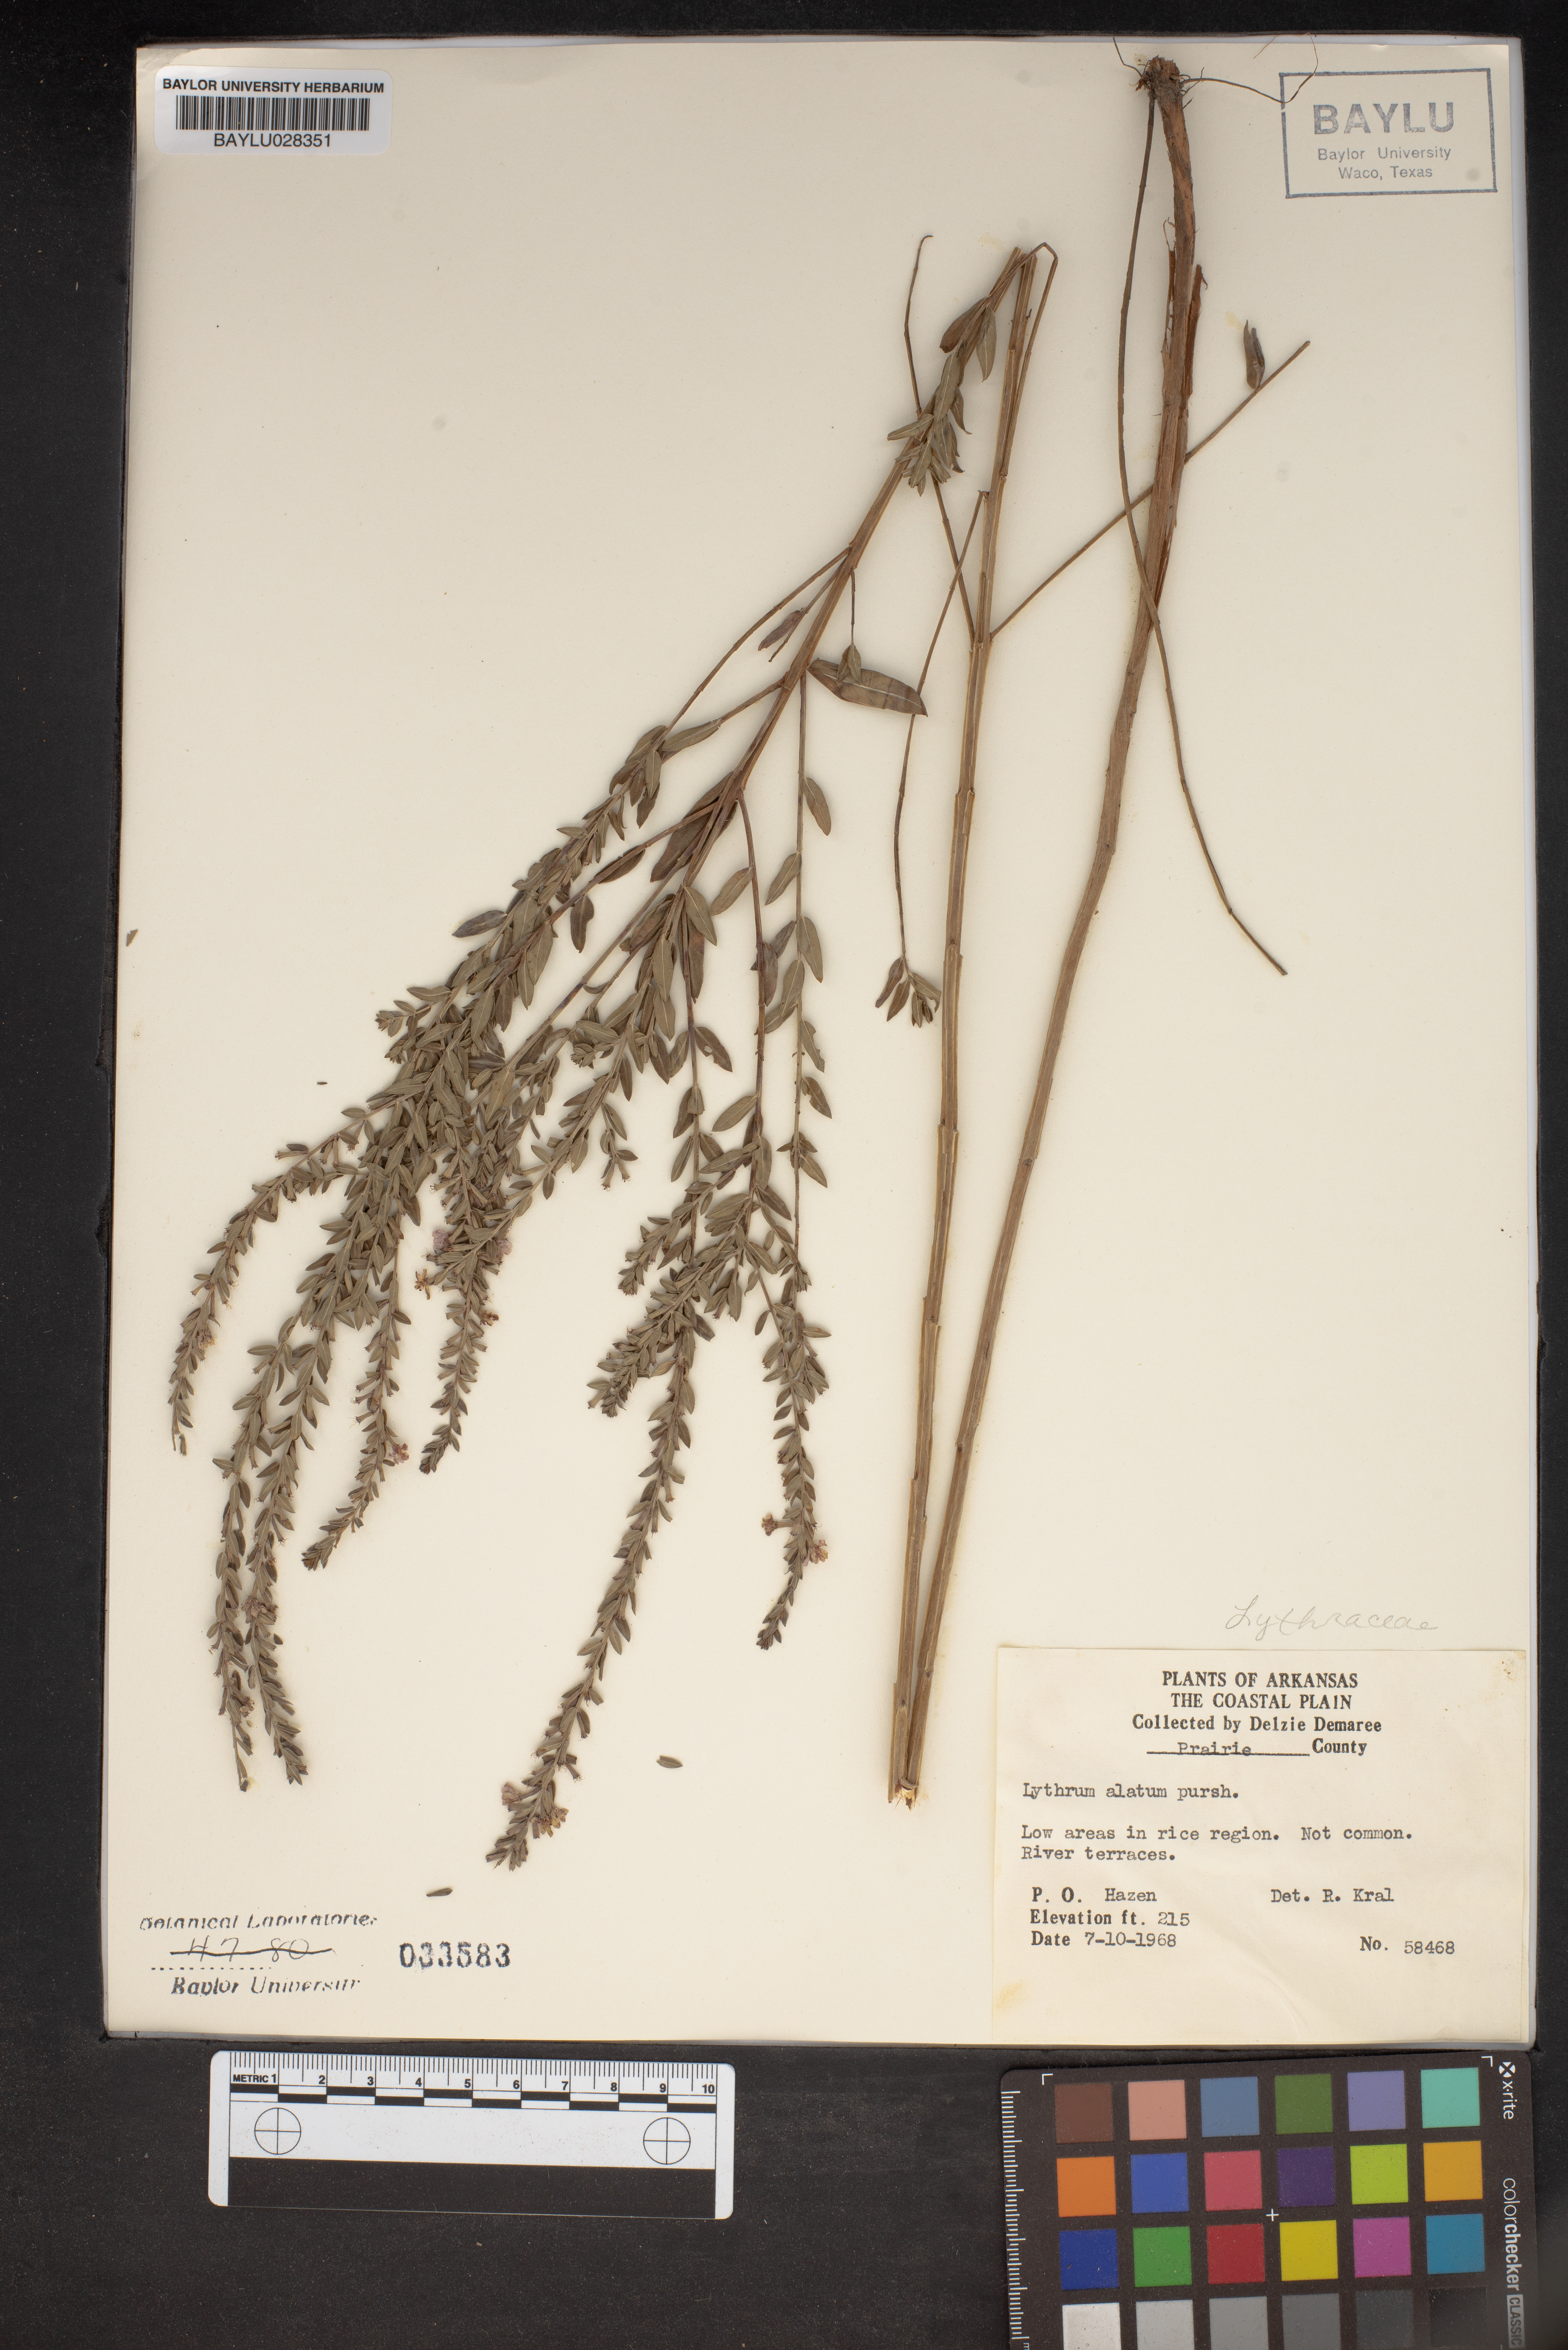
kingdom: Plantae
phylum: Tracheophyta
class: Magnoliopsida
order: Myrtales
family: Lythraceae
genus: Lythrum
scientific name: Lythrum alatum
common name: Winged loosestrife
